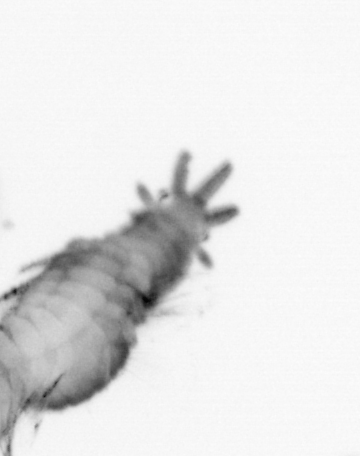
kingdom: Animalia
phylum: Annelida
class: Polychaeta
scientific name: Polychaeta
